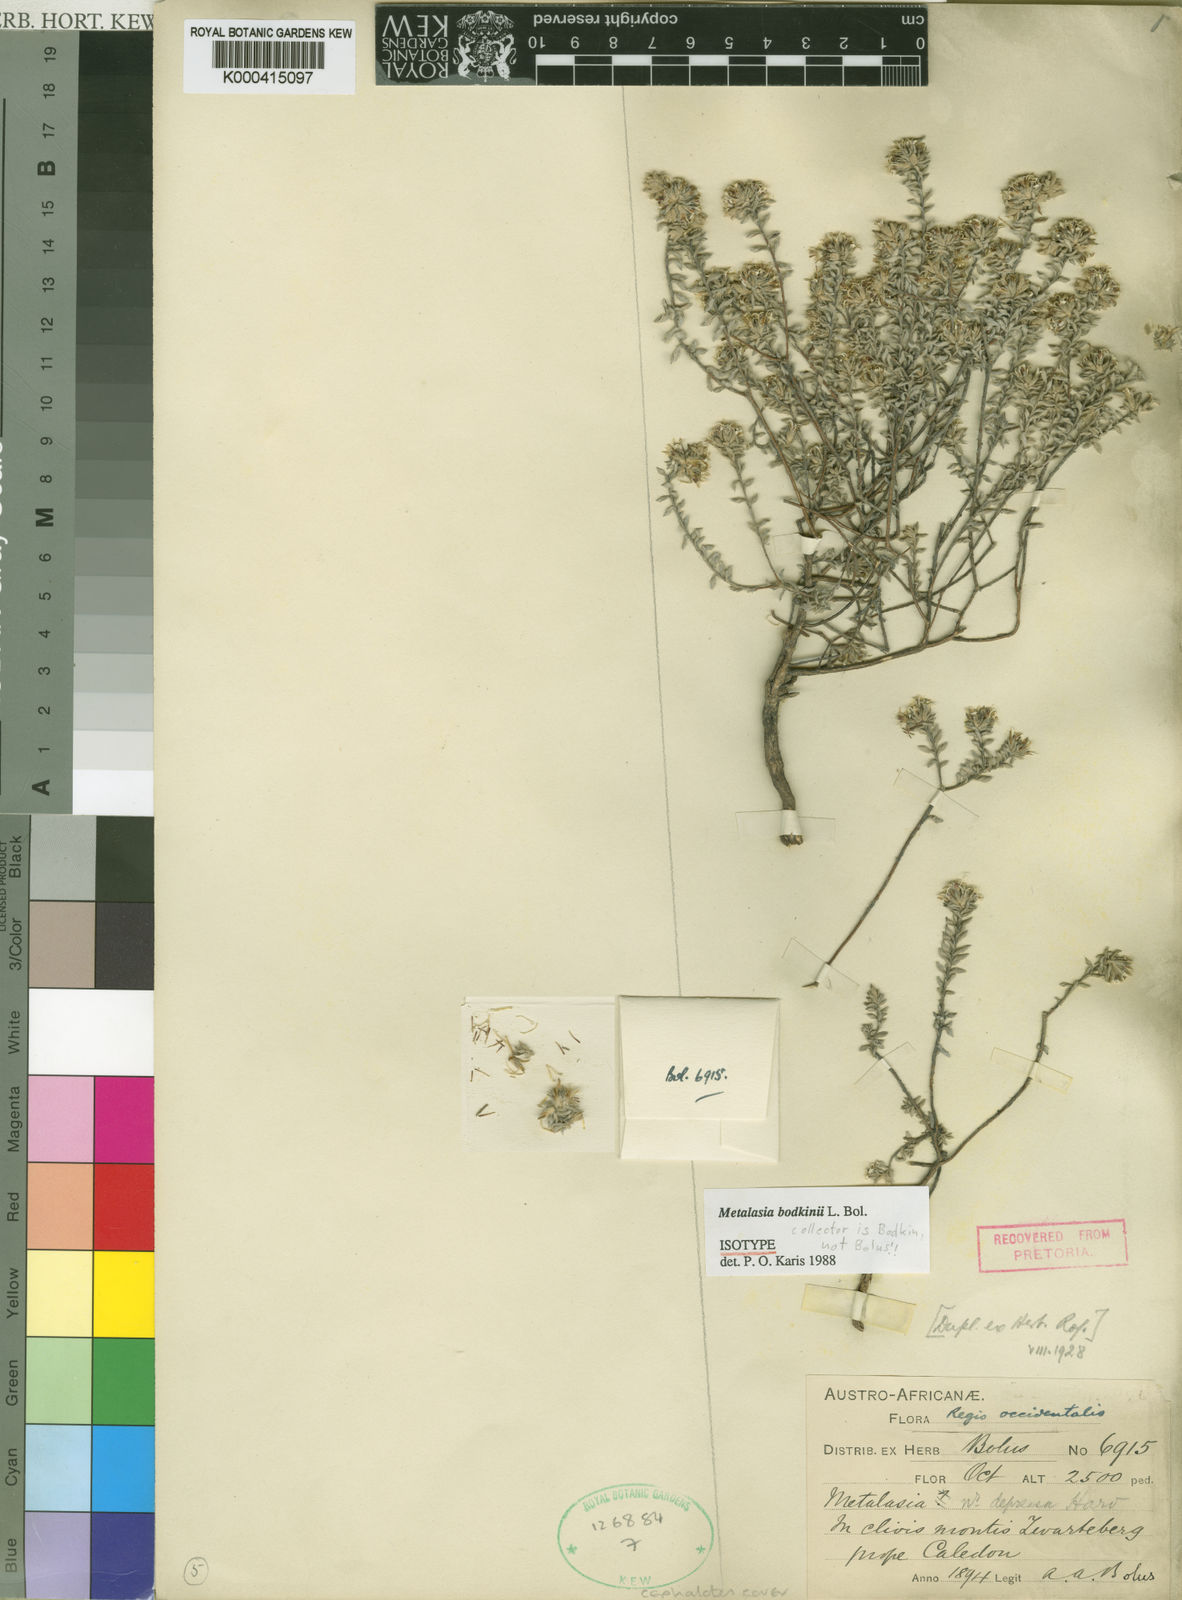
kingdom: Plantae
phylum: Tracheophyta
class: Magnoliopsida
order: Asterales
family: Asteraceae
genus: Metalasia
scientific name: Metalasia bodkinii
